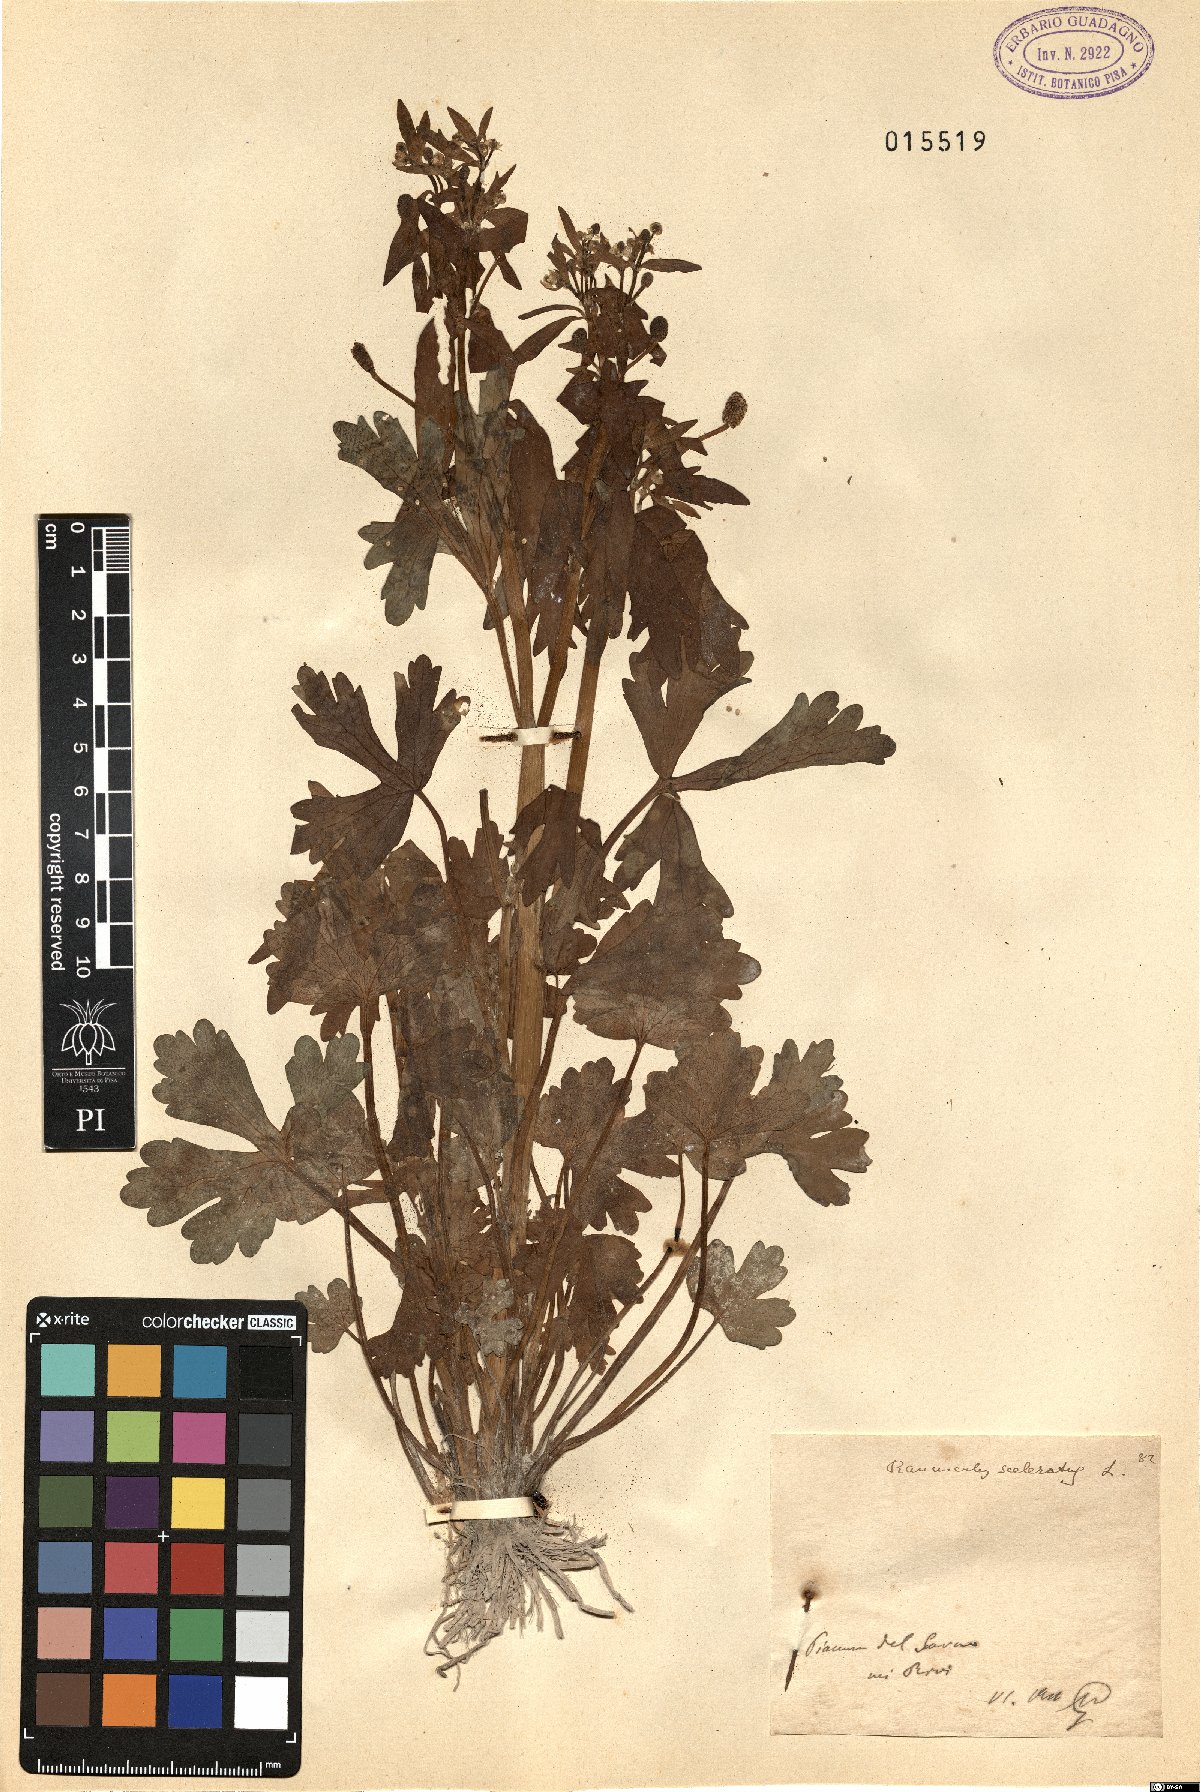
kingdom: Plantae
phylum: Tracheophyta
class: Magnoliopsida
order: Ranunculales
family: Ranunculaceae
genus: Ranunculus
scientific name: Ranunculus sceleratus
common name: Celery-leaved buttercup
